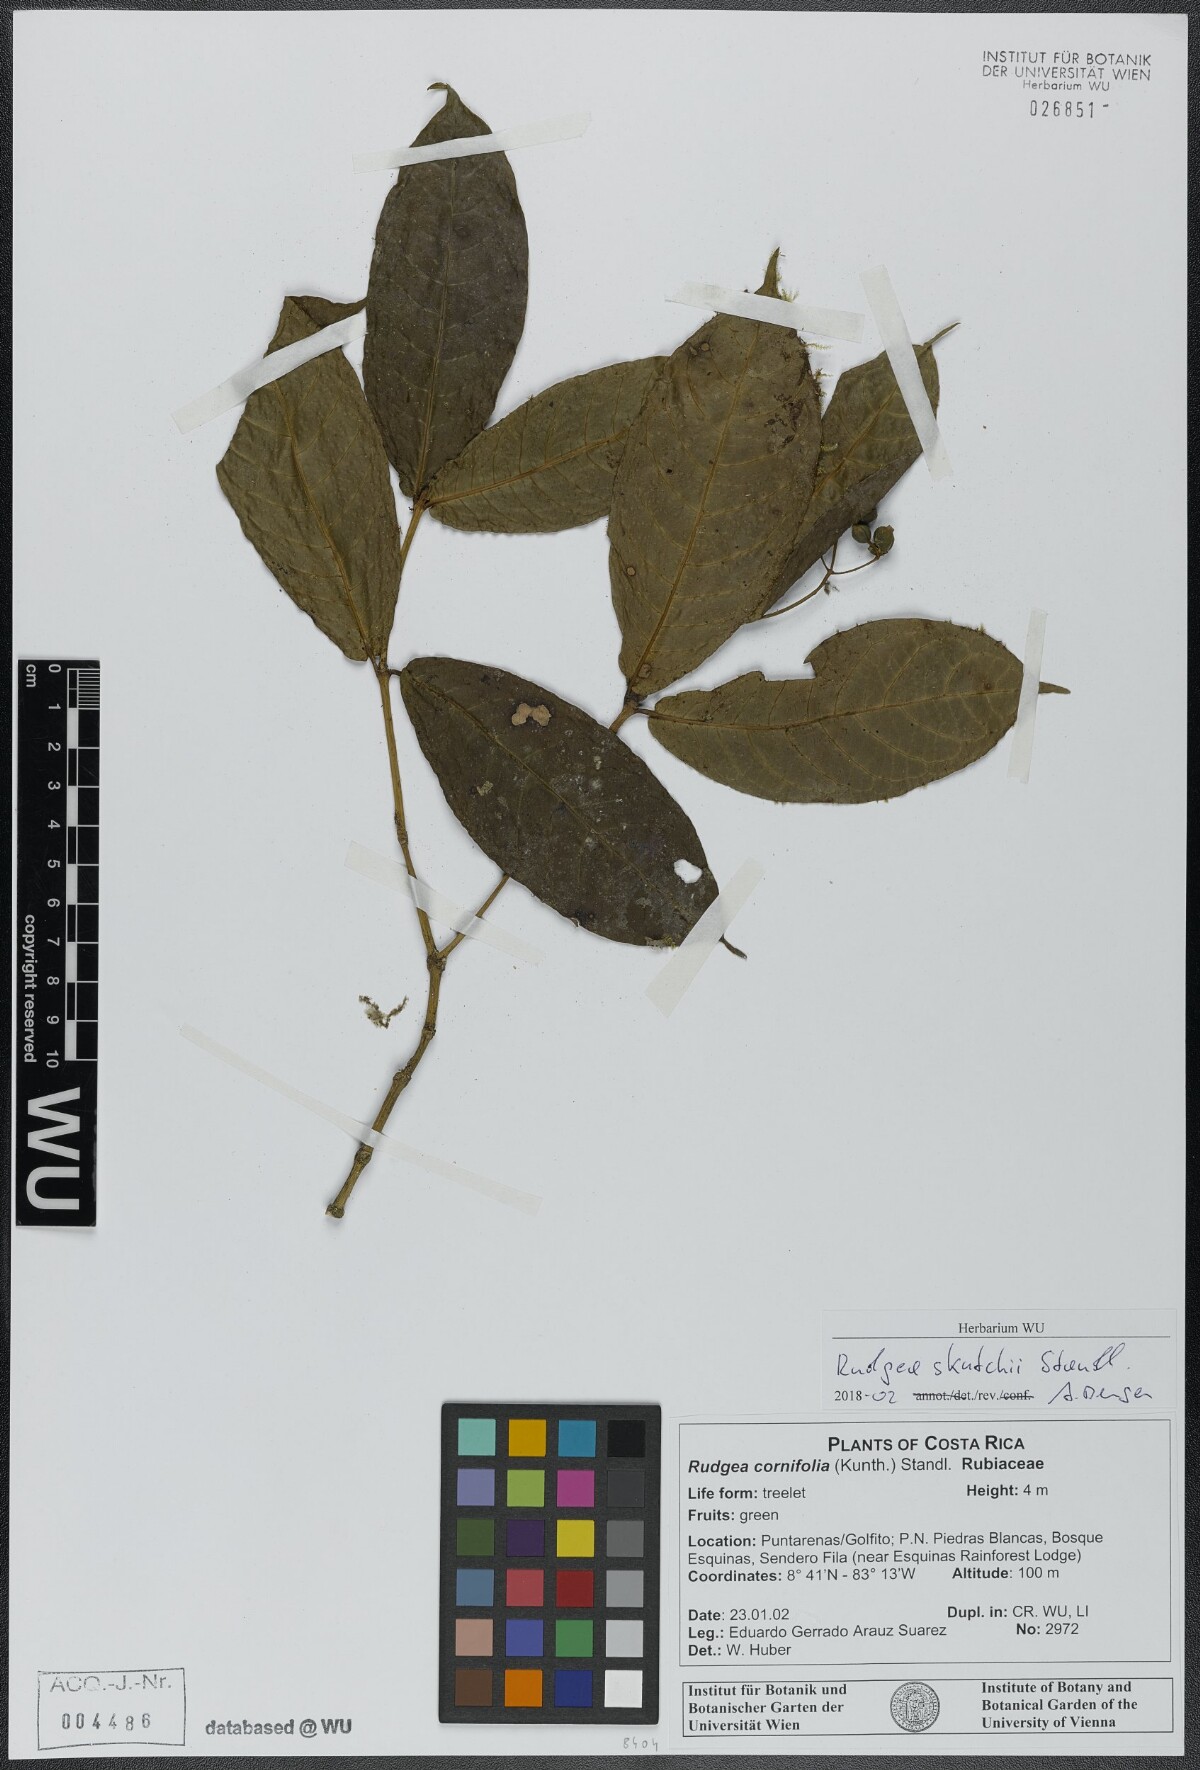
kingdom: Plantae
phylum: Tracheophyta
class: Magnoliopsida
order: Gentianales
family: Rubiaceae
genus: Rudgea
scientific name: Rudgea skutchii
